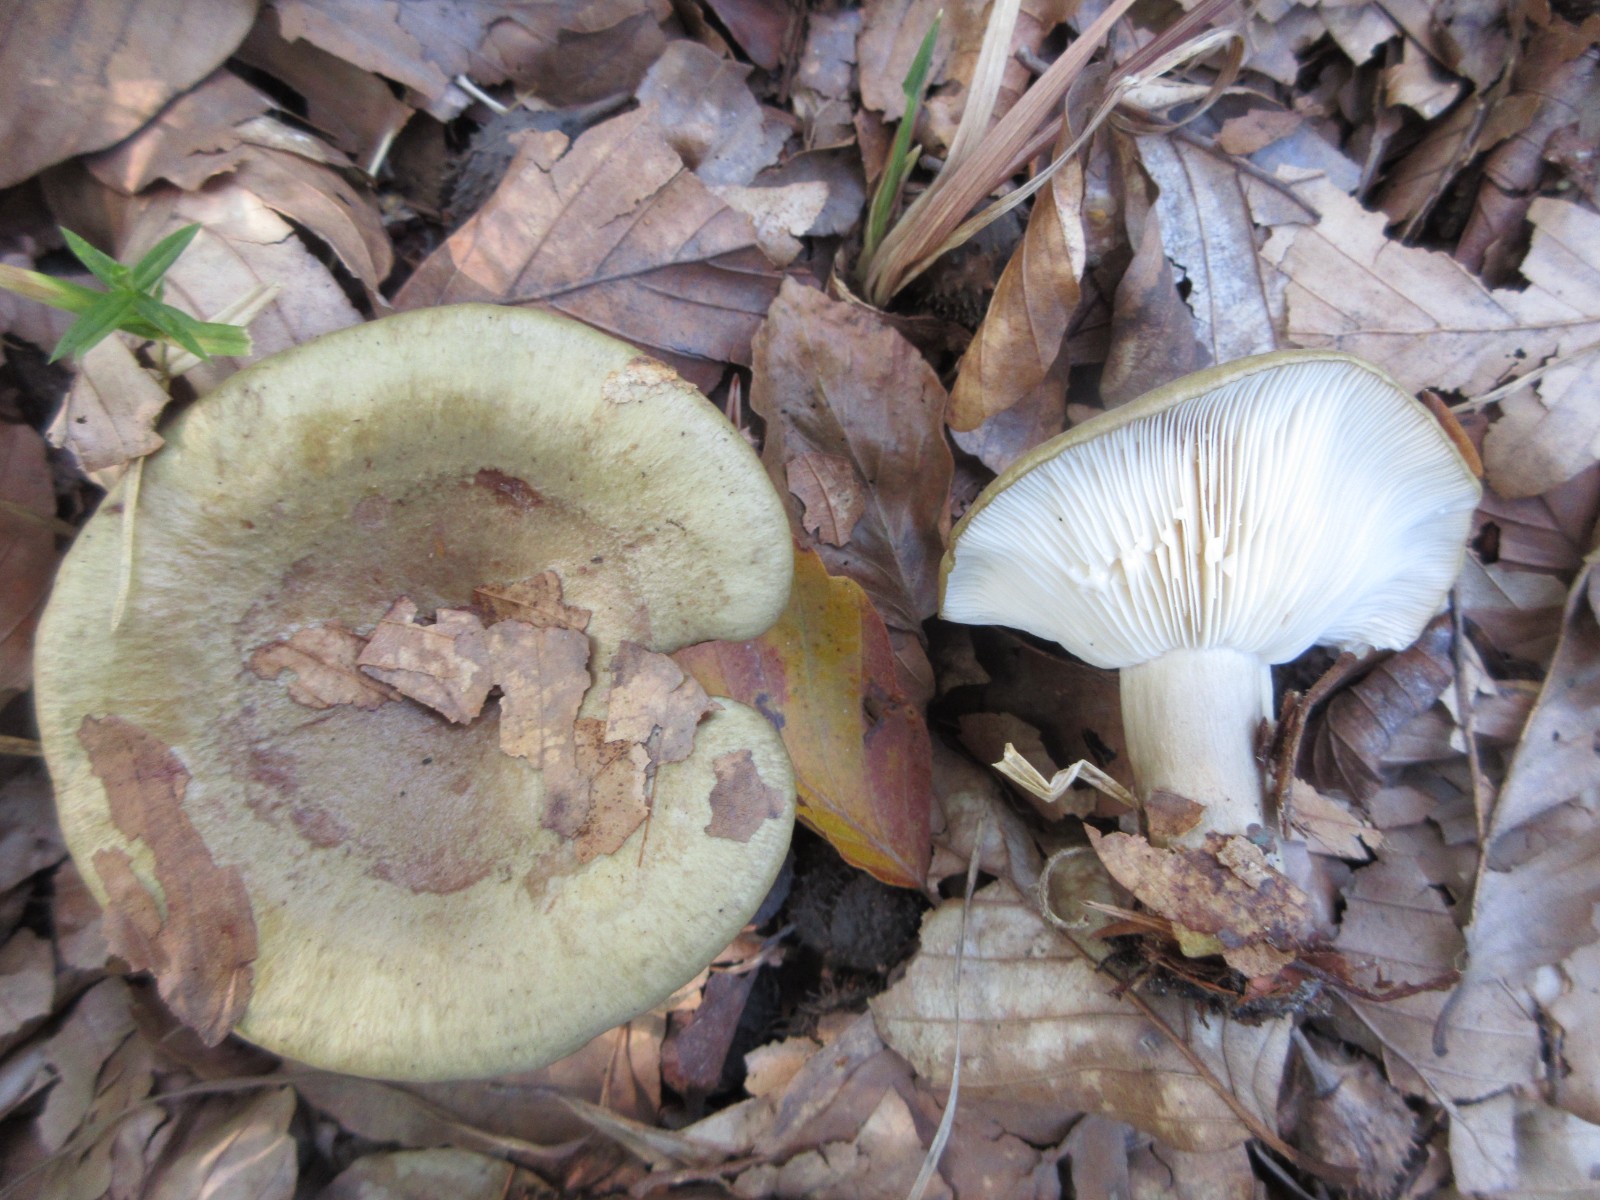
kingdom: Fungi
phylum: Basidiomycota
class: Agaricomycetes
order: Russulales
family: Russulaceae
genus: Lactarius
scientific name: Lactarius blennius
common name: dråbeplettet mælkehat
